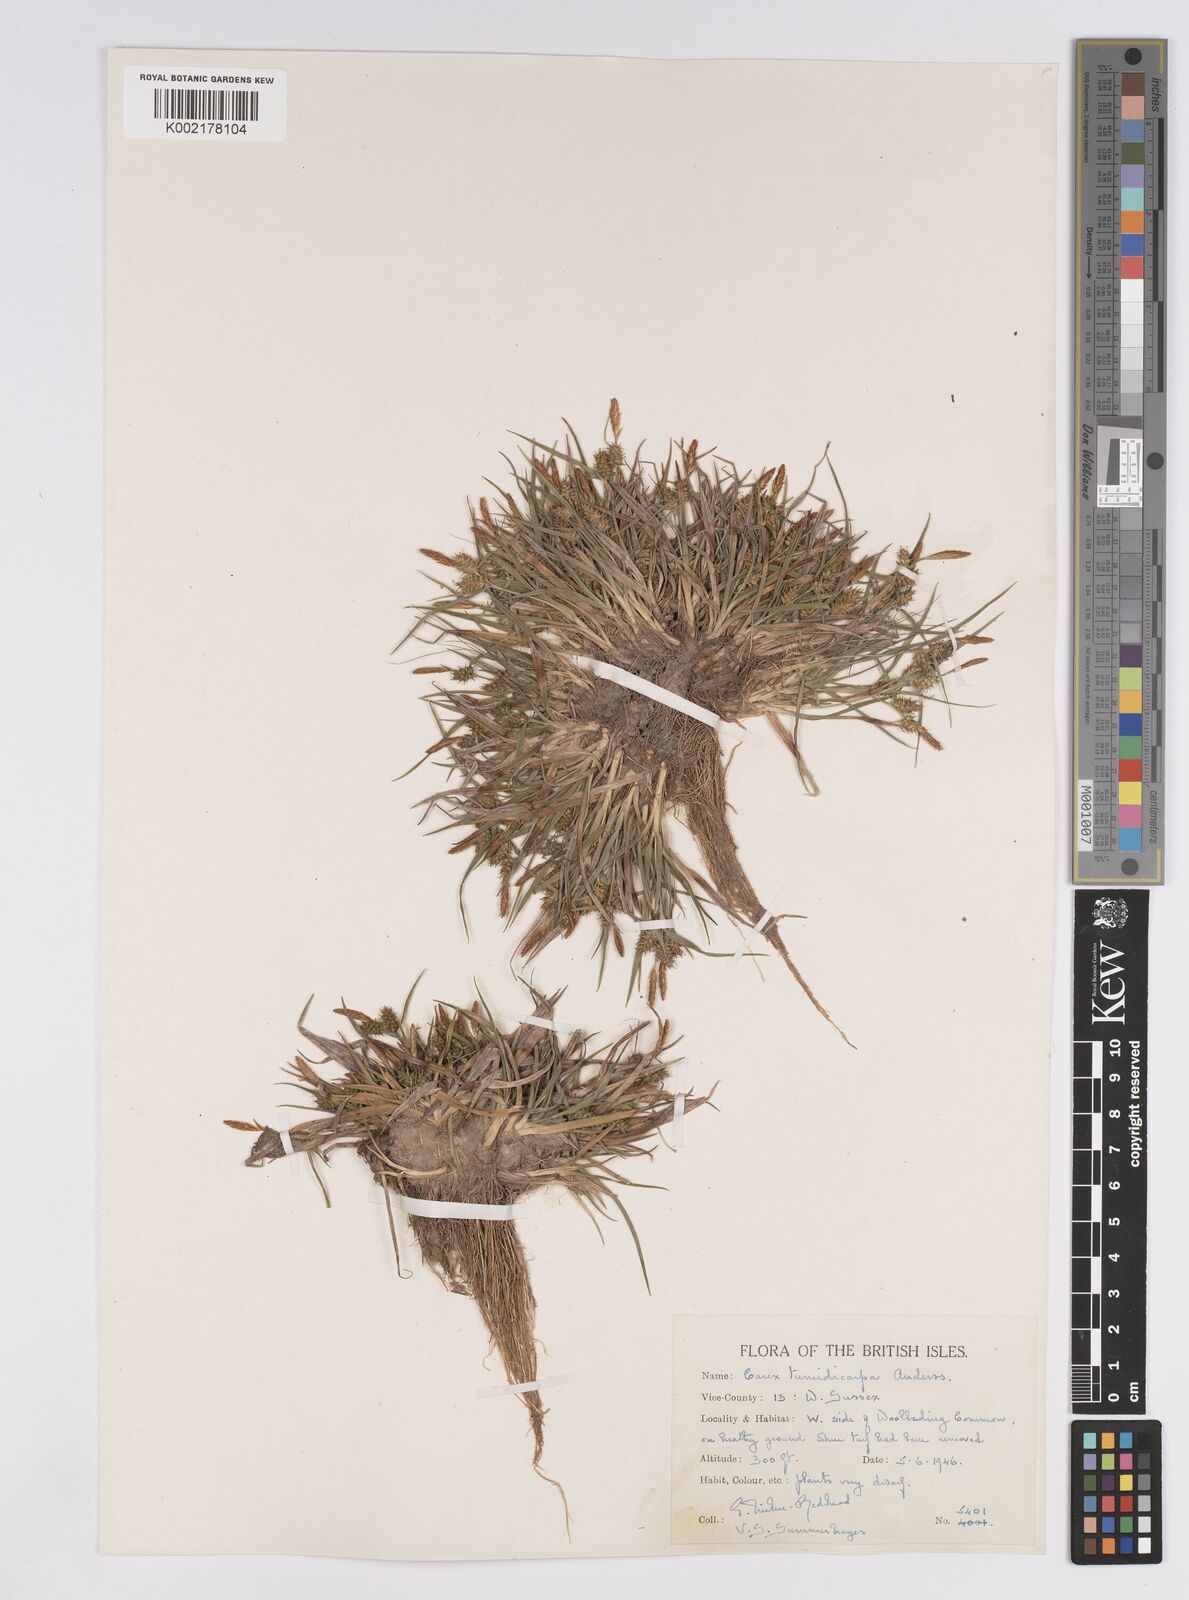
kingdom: Plantae
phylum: Tracheophyta
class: Liliopsida
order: Poales
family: Cyperaceae
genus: Carex
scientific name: Carex demissa
